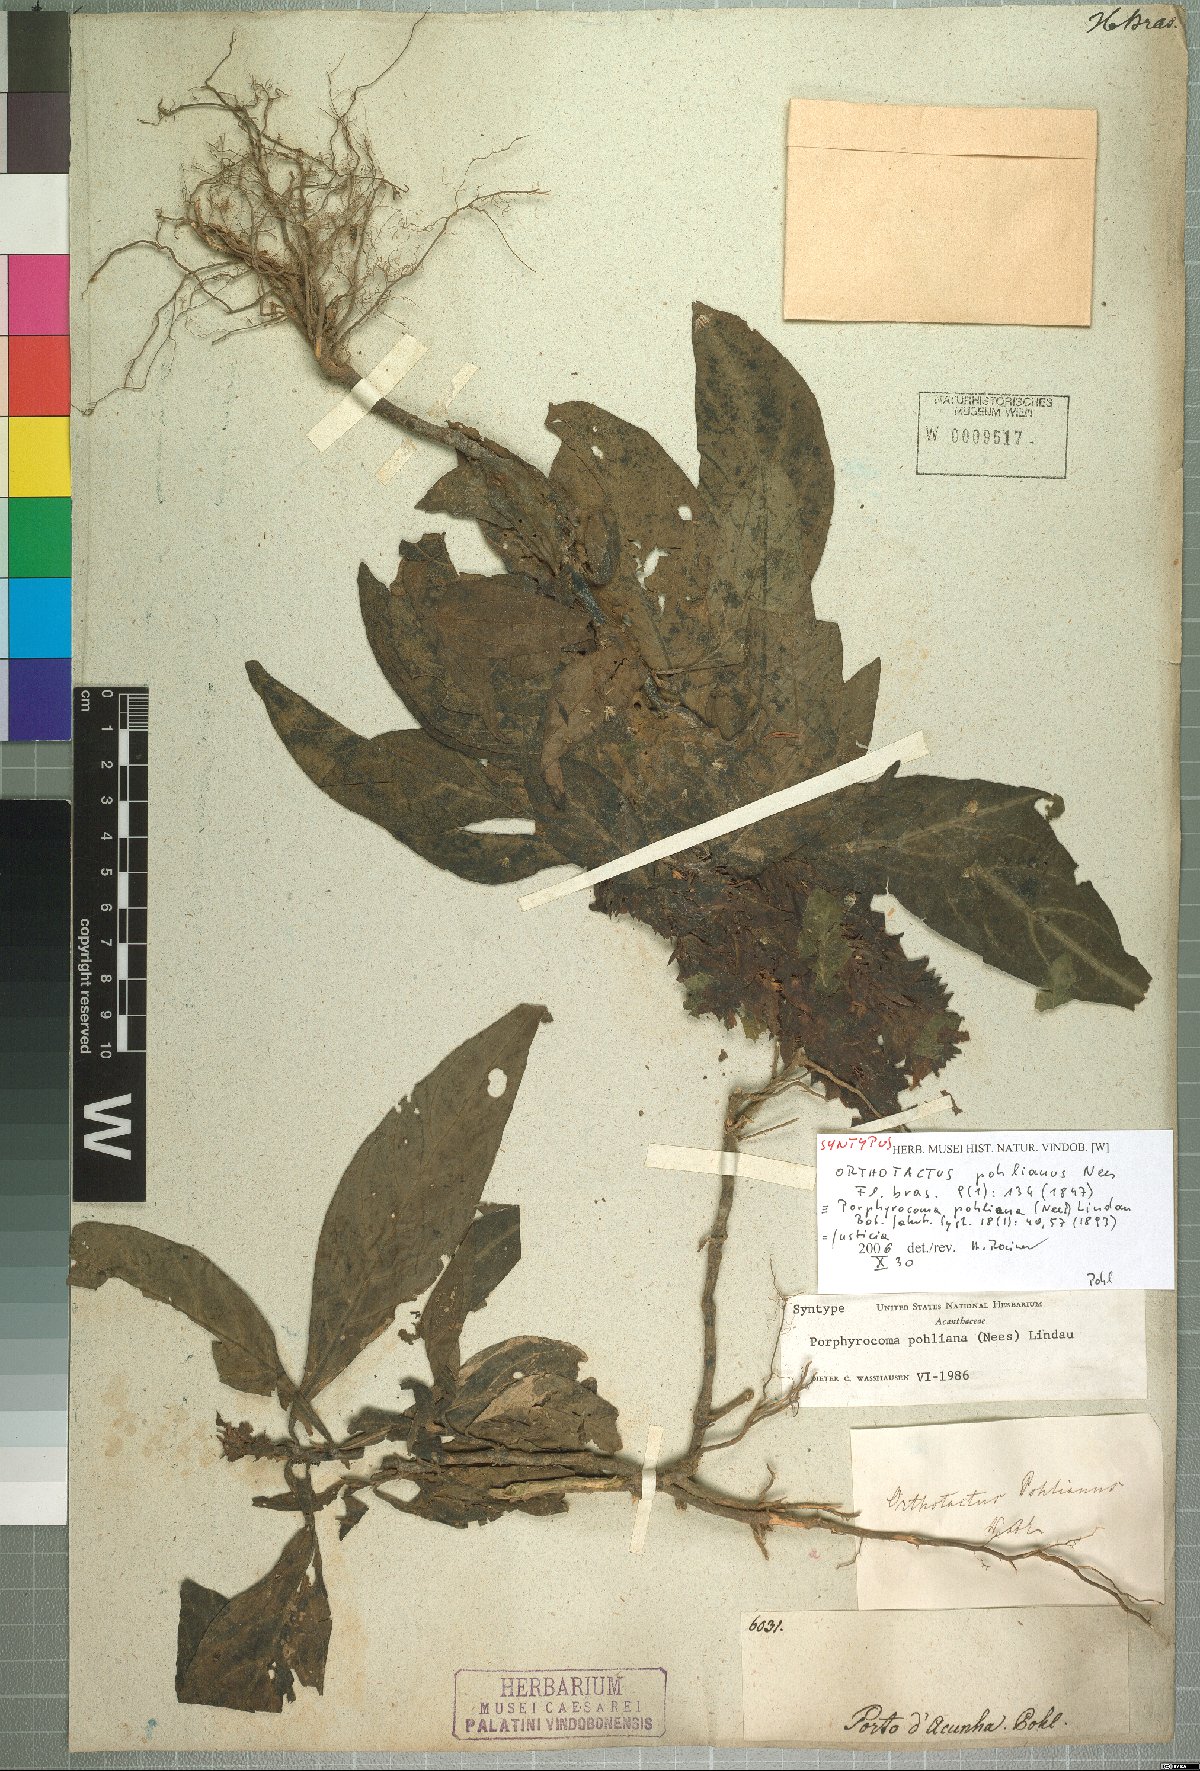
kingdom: Plantae
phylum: Tracheophyta
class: Magnoliopsida
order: Lamiales
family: Acanthaceae
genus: Justicia
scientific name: Justicia
